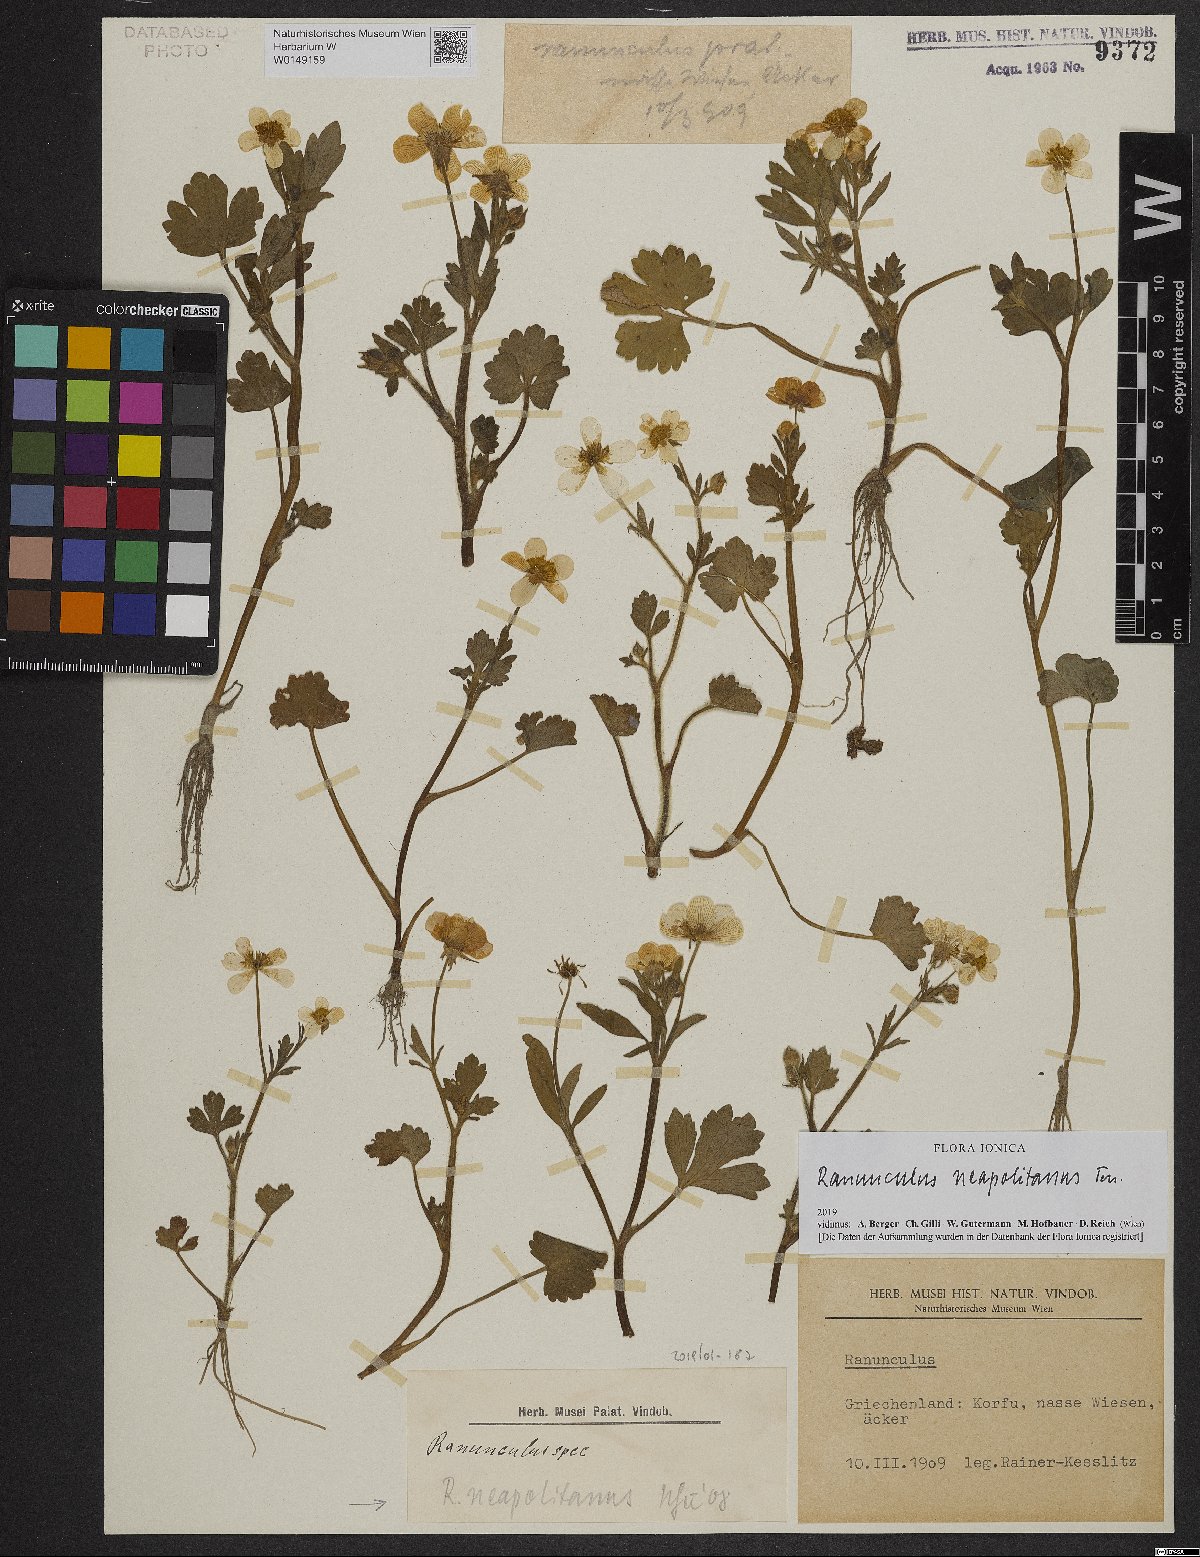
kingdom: Plantae
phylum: Tracheophyta
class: Magnoliopsida
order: Ranunculales
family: Ranunculaceae
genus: Ranunculus
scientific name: Ranunculus neapolitanus
